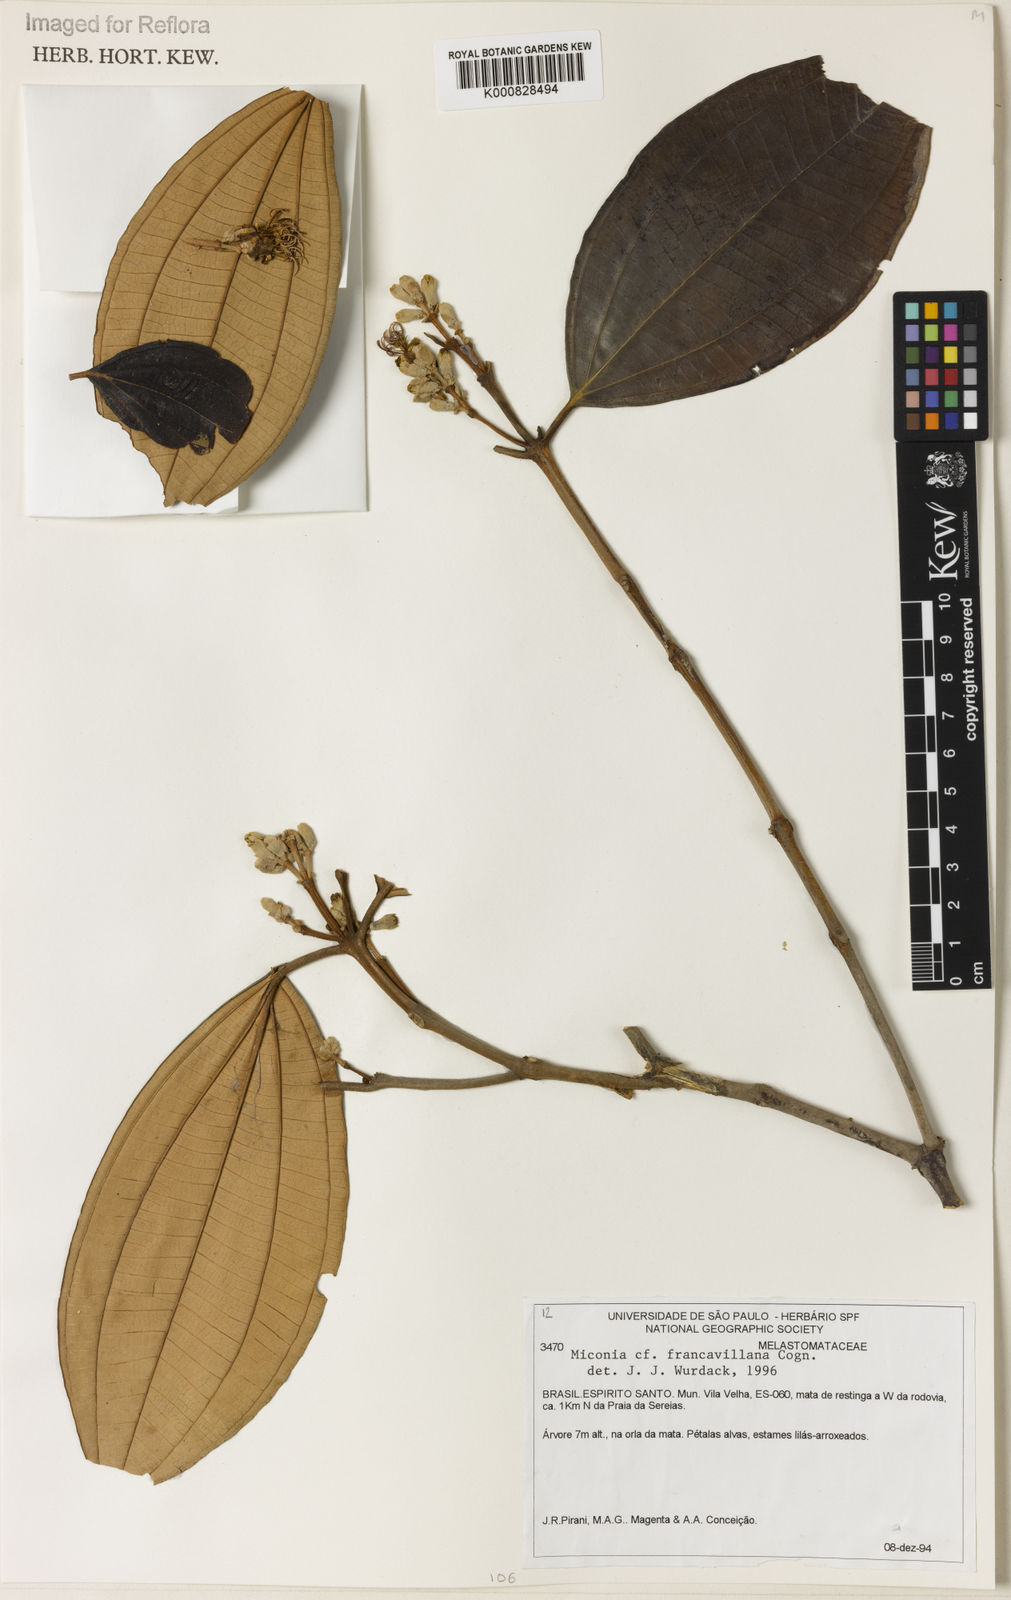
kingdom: Plantae
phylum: Tracheophyta
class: Magnoliopsida
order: Myrtales
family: Melastomataceae
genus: Miconia
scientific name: Miconia francavillana
